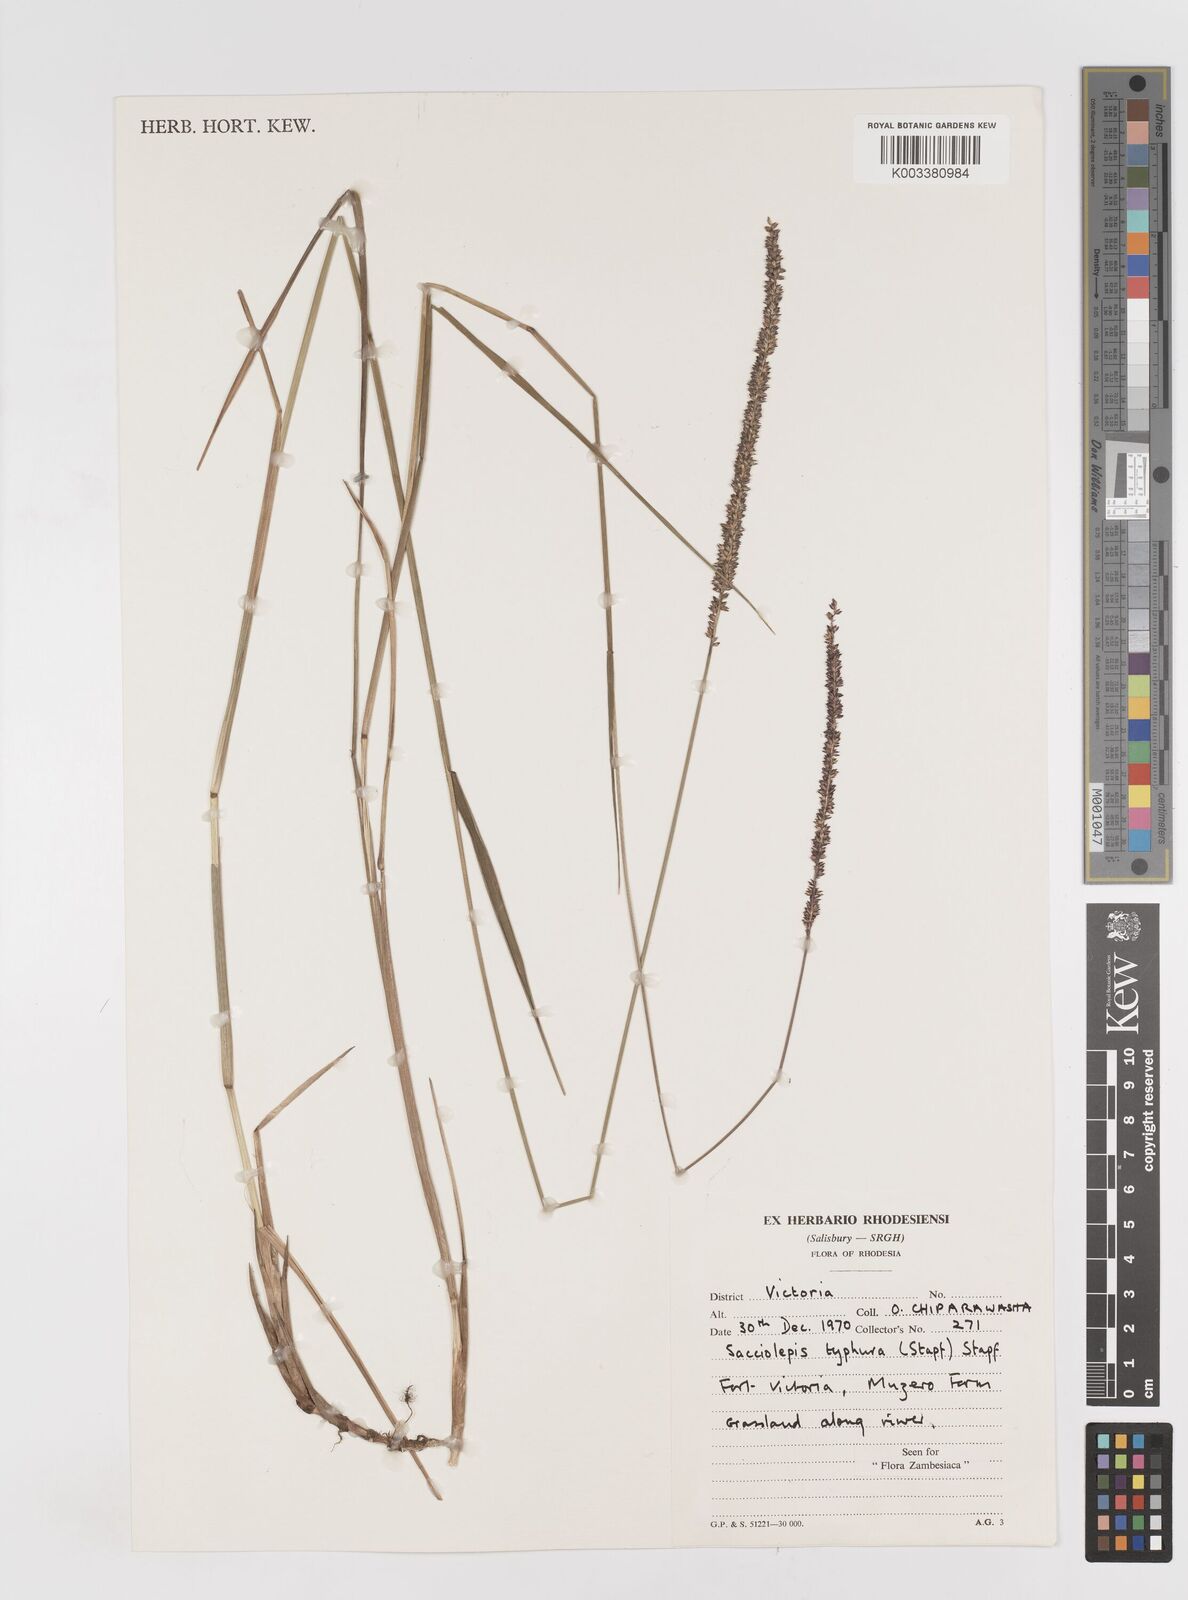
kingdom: Plantae
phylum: Tracheophyta
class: Liliopsida
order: Poales
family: Poaceae
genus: Sacciolepis
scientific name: Sacciolepis typhura
